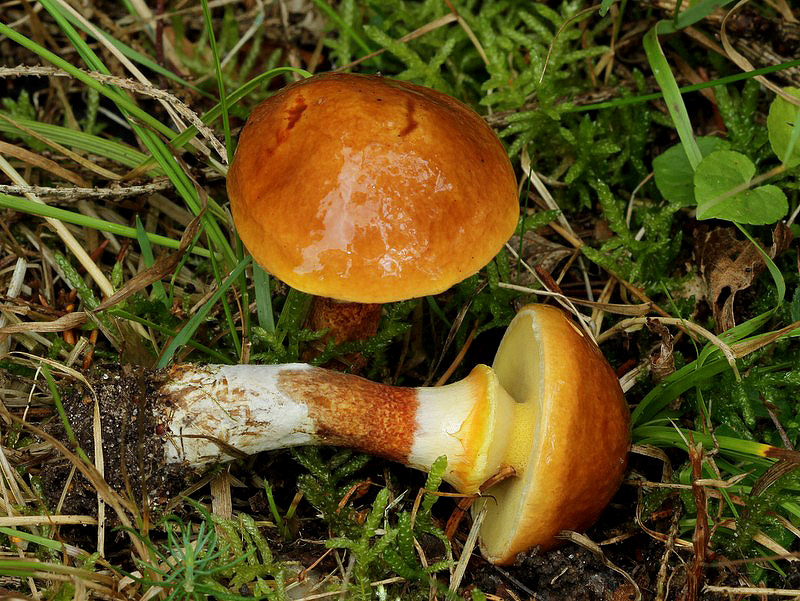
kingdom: Fungi
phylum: Basidiomycota
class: Agaricomycetes
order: Boletales
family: Suillaceae
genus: Suillus
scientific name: Suillus grevillei
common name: lærke-slimrørhat
